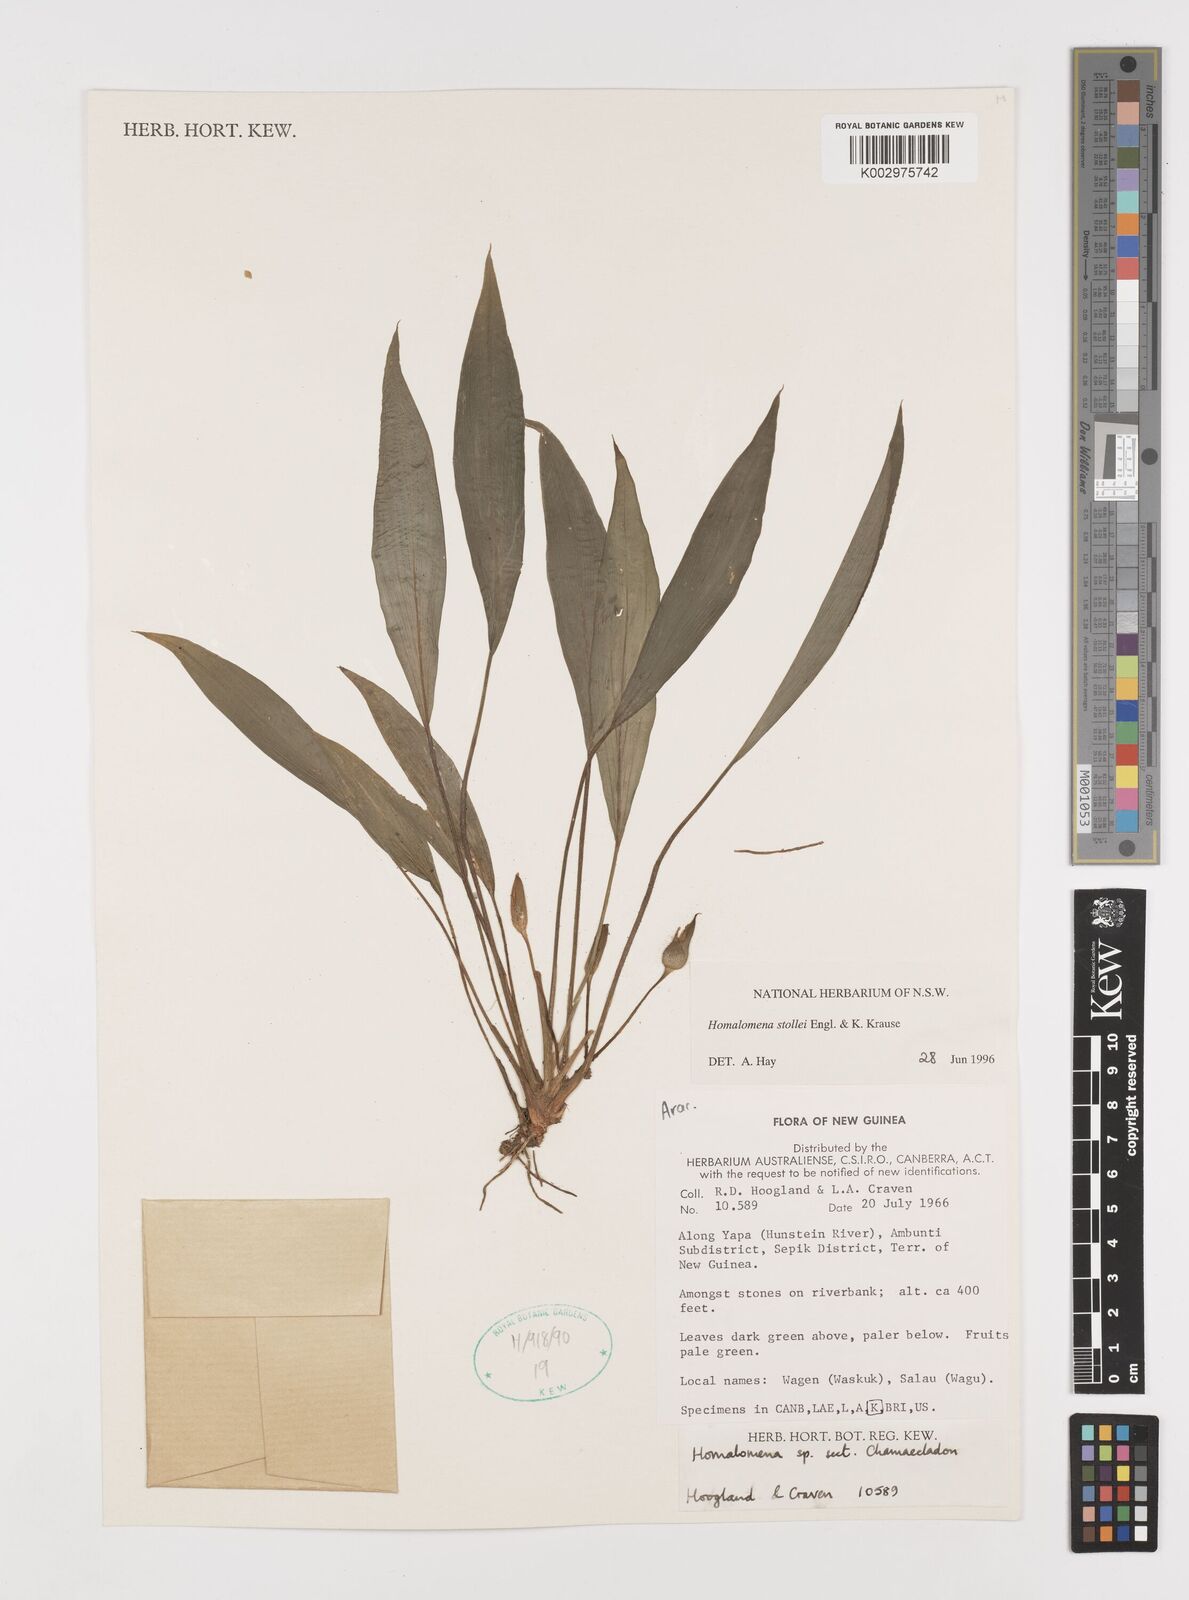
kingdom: Plantae
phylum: Tracheophyta
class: Liliopsida
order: Alismatales
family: Araceae
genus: Homalomena
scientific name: Homalomena stollei
